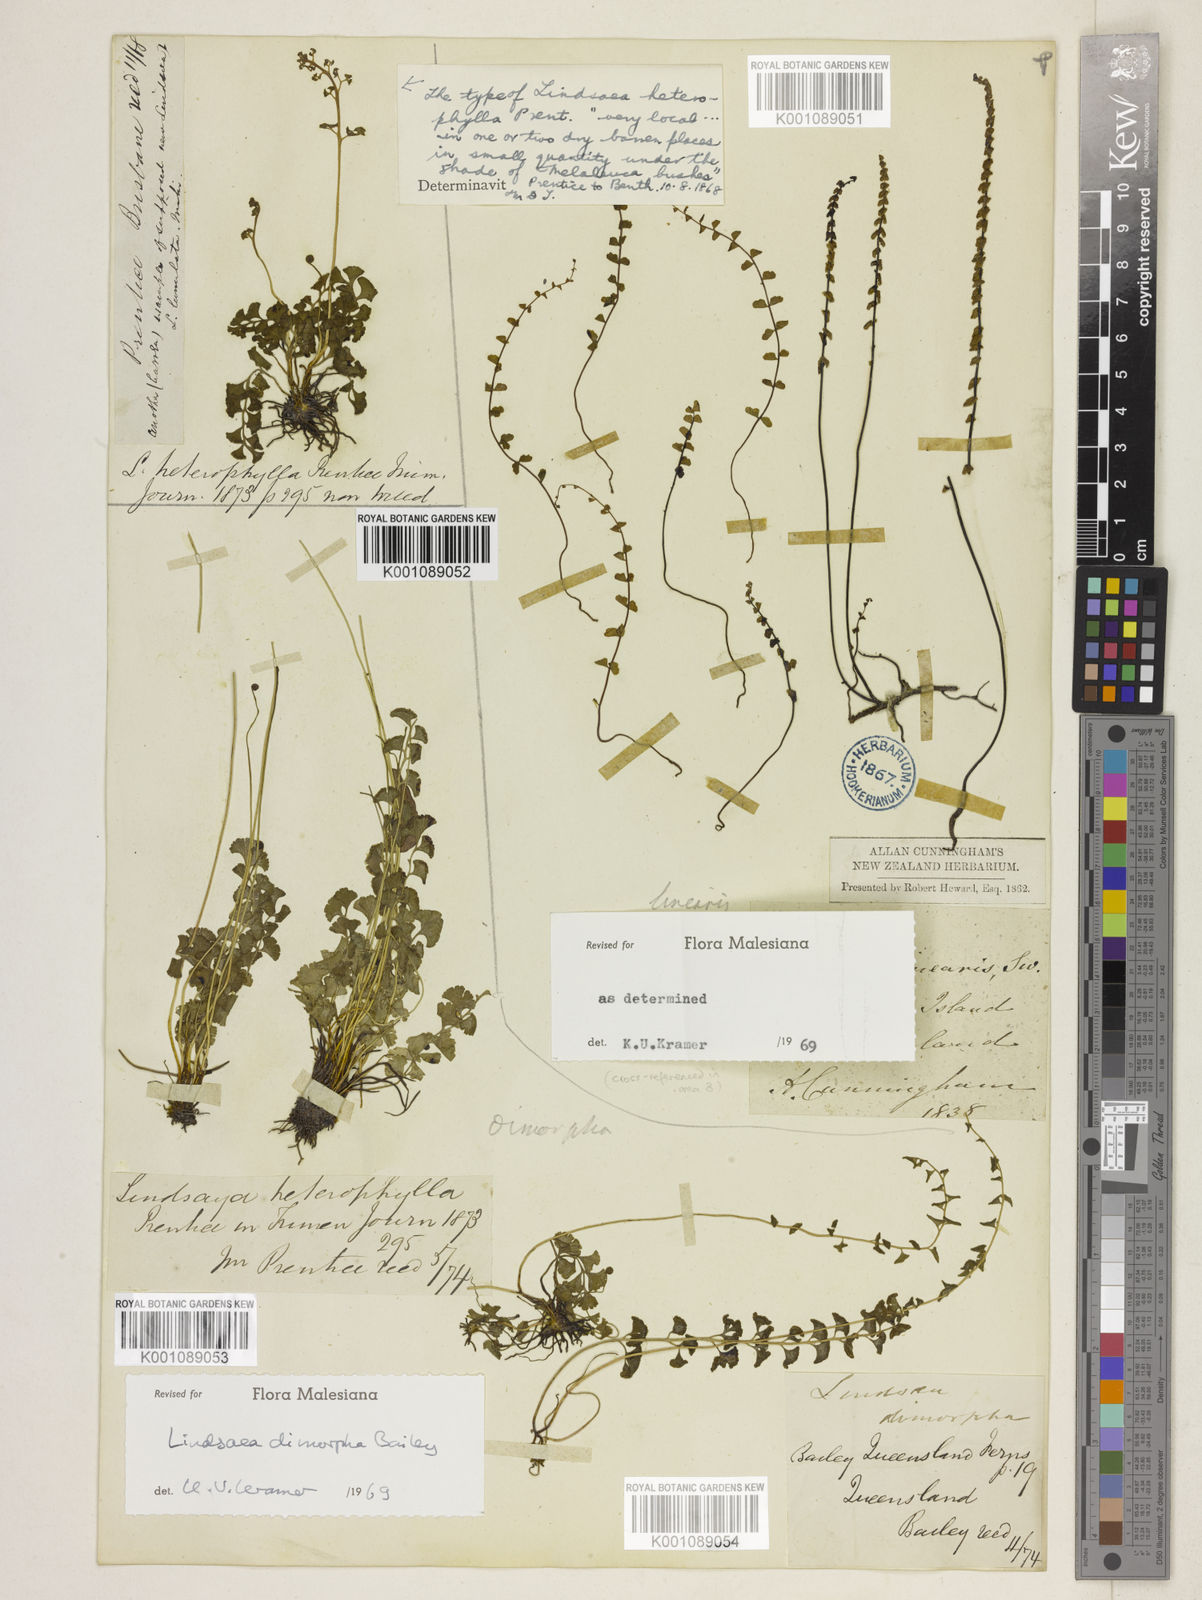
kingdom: Plantae
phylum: Tracheophyta
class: Polypodiopsida
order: Polypodiales
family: Lindsaeaceae
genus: Lindsaea
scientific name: Lindsaea dimorpha
